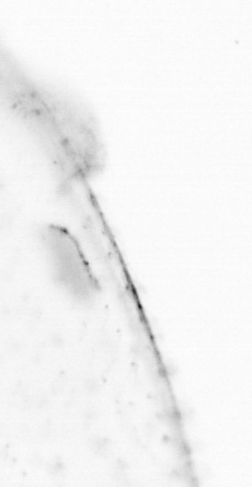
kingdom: Chromista
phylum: Ochrophyta
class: Bacillariophyceae
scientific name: Bacillariophyceae
